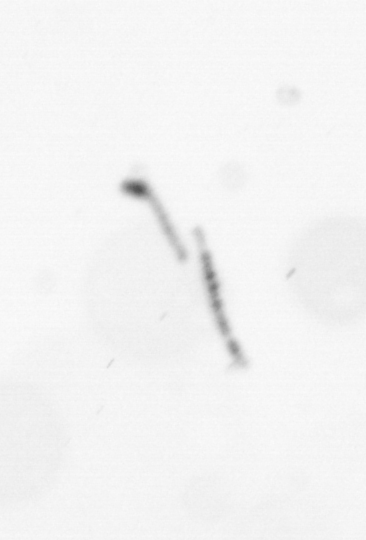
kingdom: Chromista
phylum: Ochrophyta
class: Bacillariophyceae
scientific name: Bacillariophyceae
